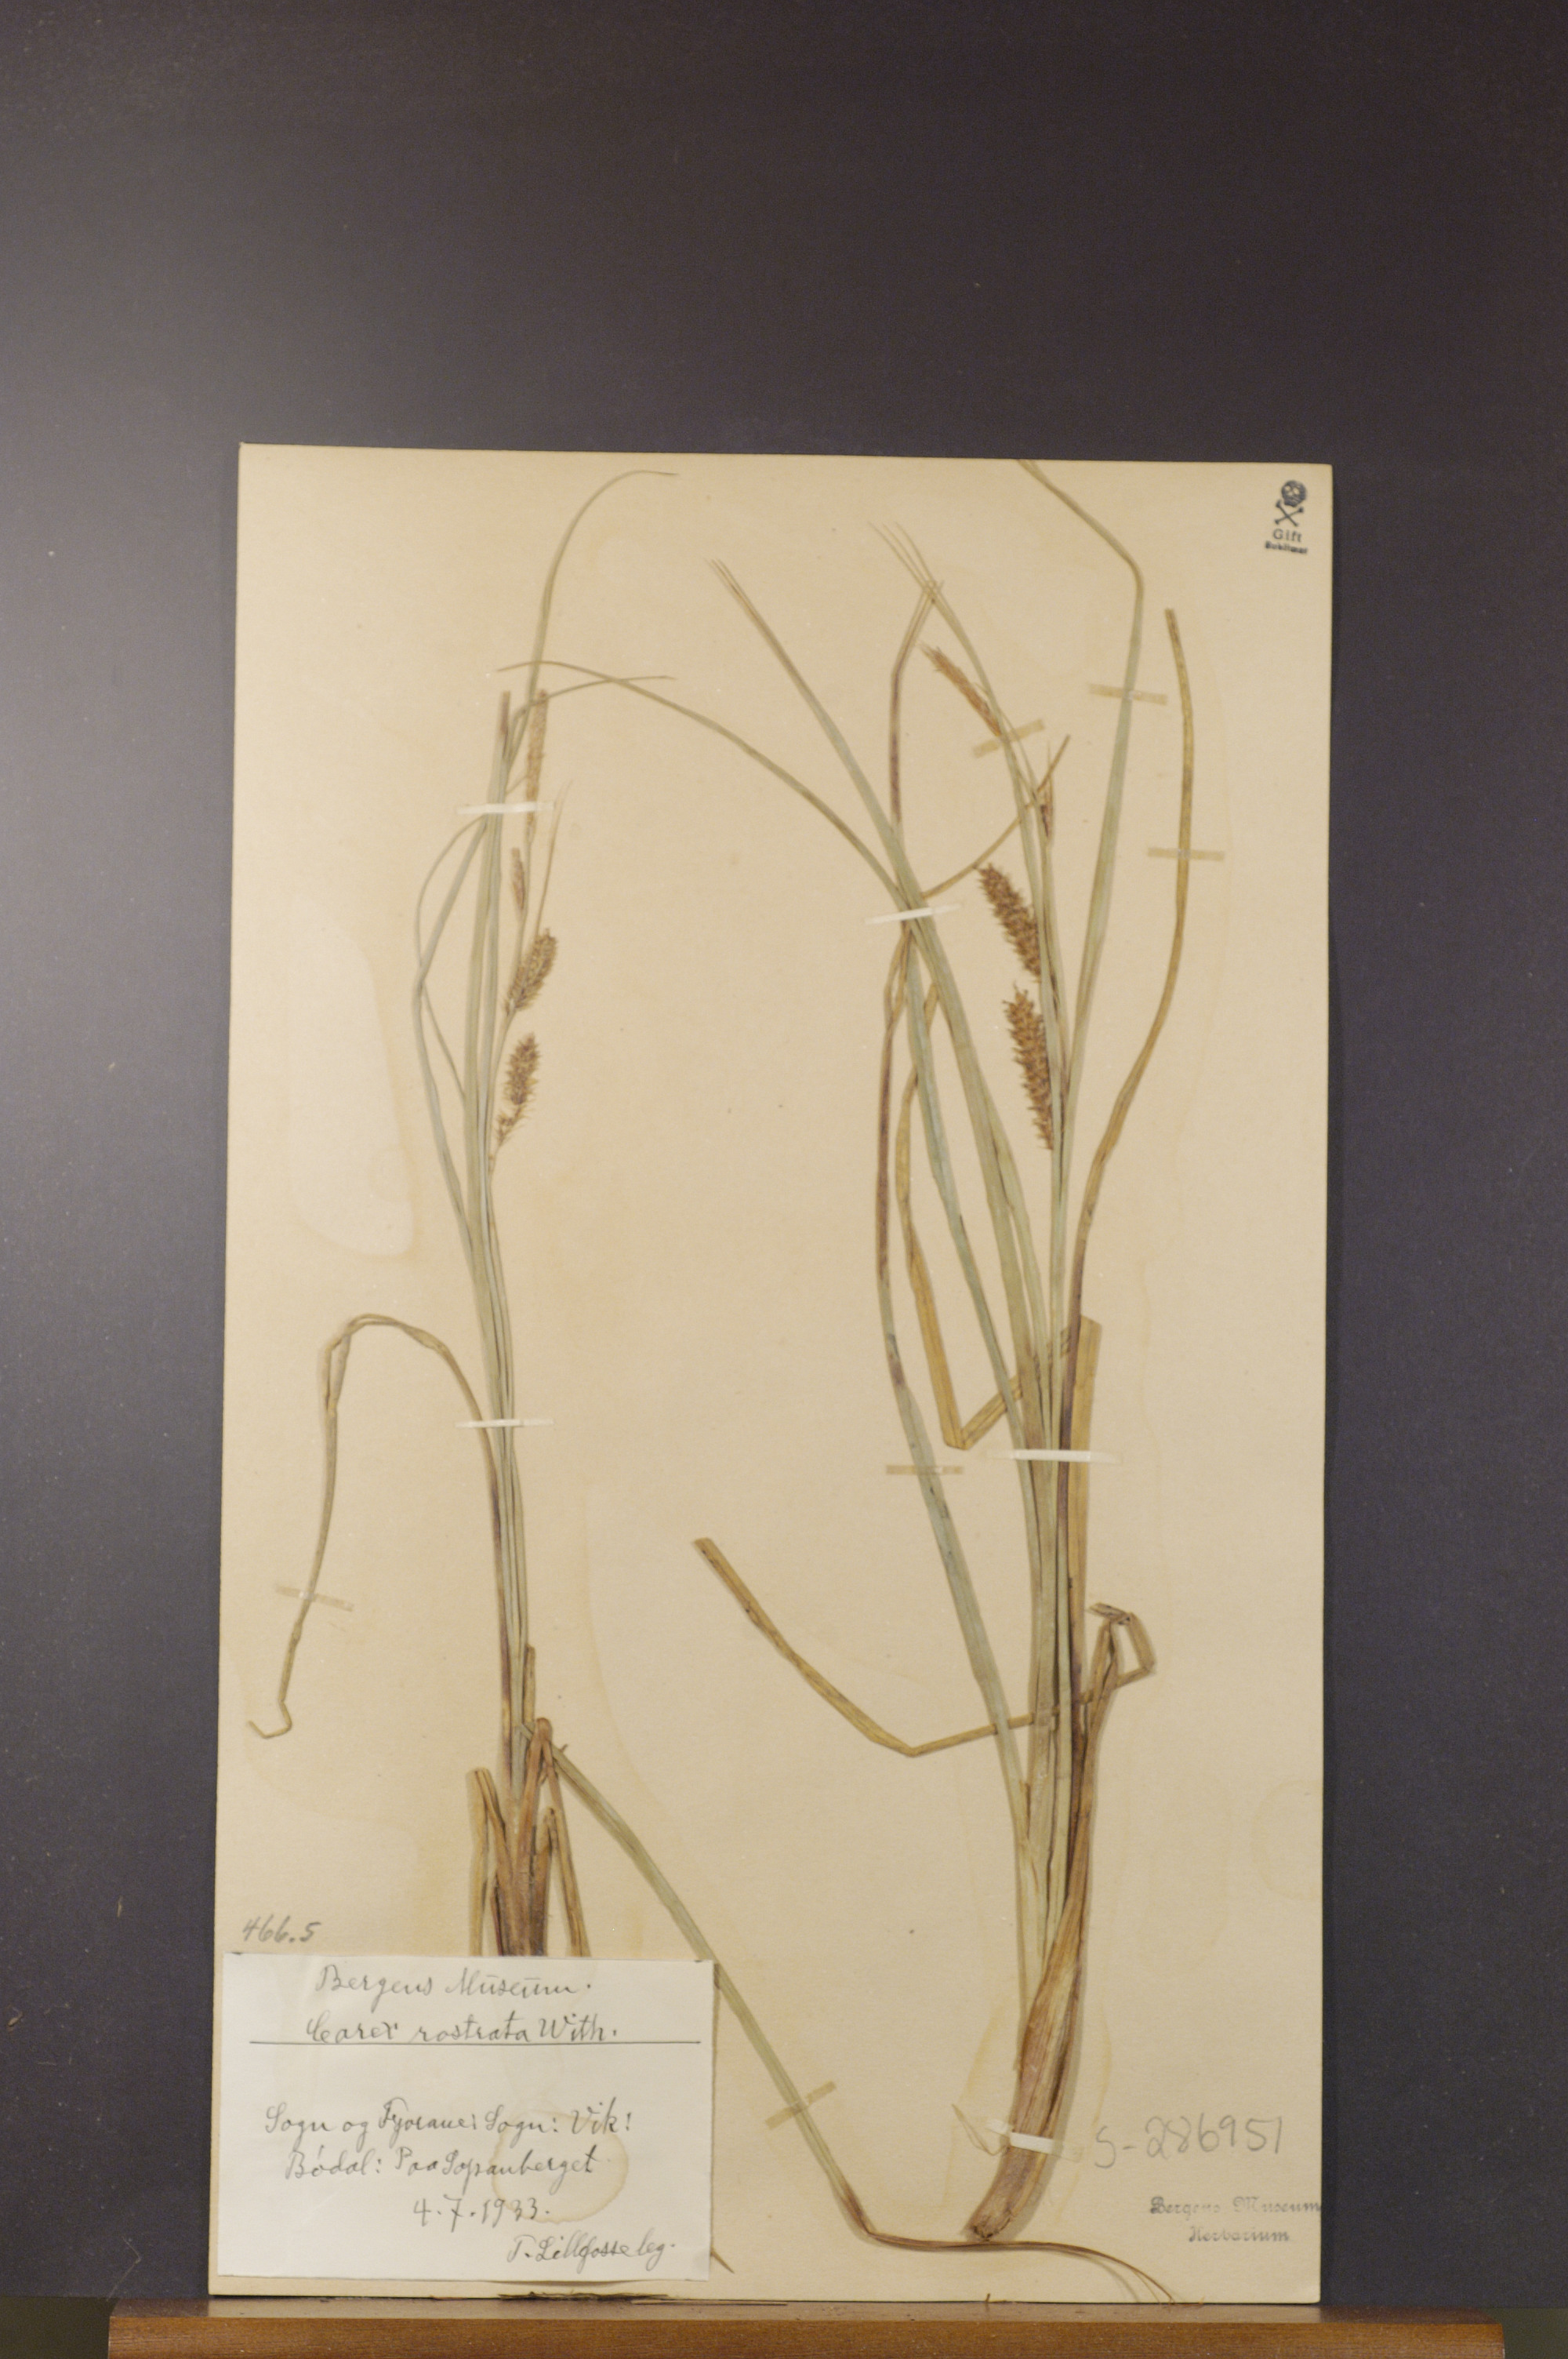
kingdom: Plantae
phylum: Tracheophyta
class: Liliopsida
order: Poales
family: Cyperaceae
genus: Carex
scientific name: Carex rostrata
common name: Bottle sedge
